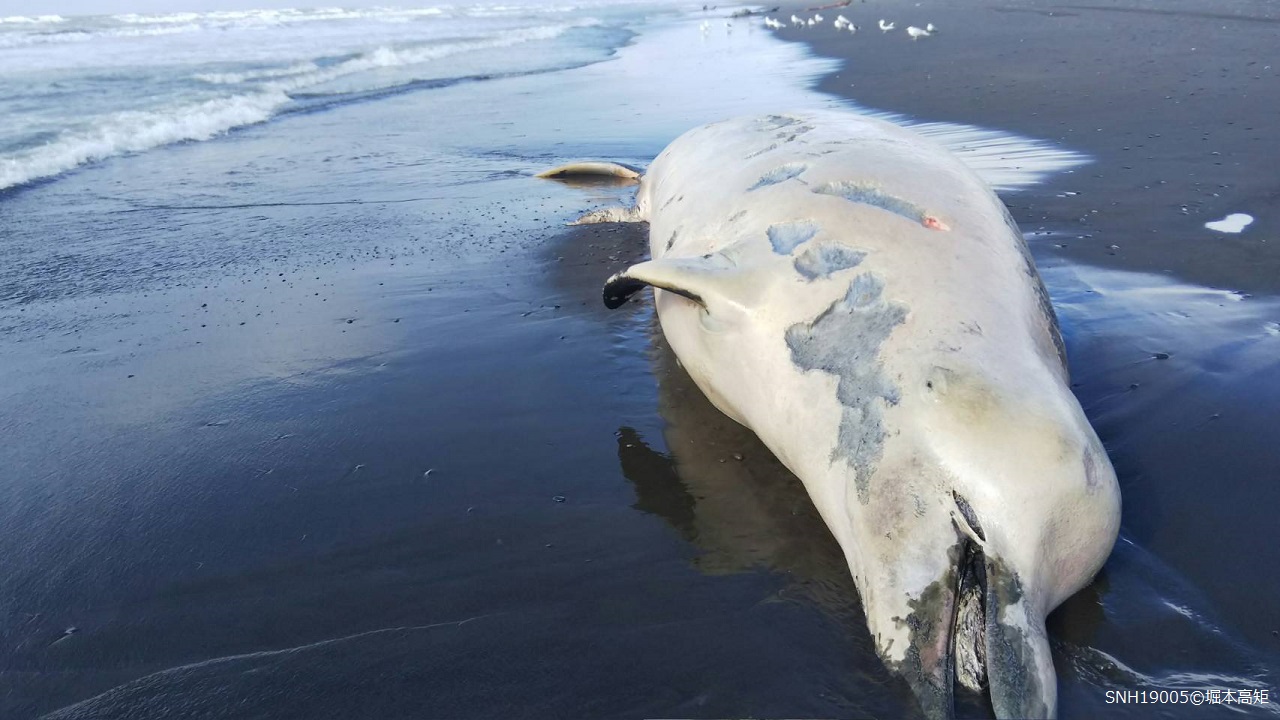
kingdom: Animalia
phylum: Chordata
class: Mammalia
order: Cetacea
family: Hyperoodontidae
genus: Berardius
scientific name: Berardius bairdii
